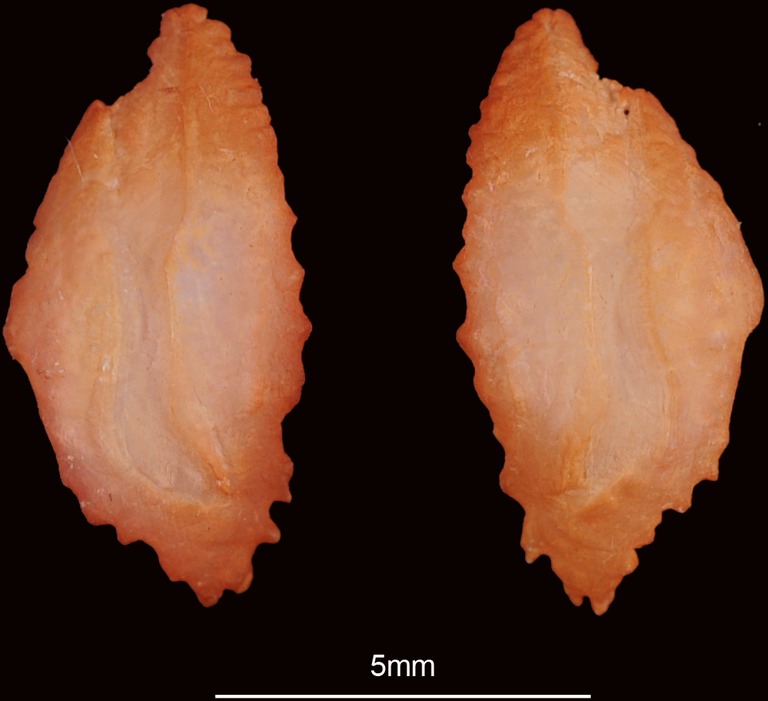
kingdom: Animalia
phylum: Chordata
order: Perciformes
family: Serranidae
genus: Epinephelus
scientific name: Epinephelus stoliczkae
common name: Epaulet grouper
